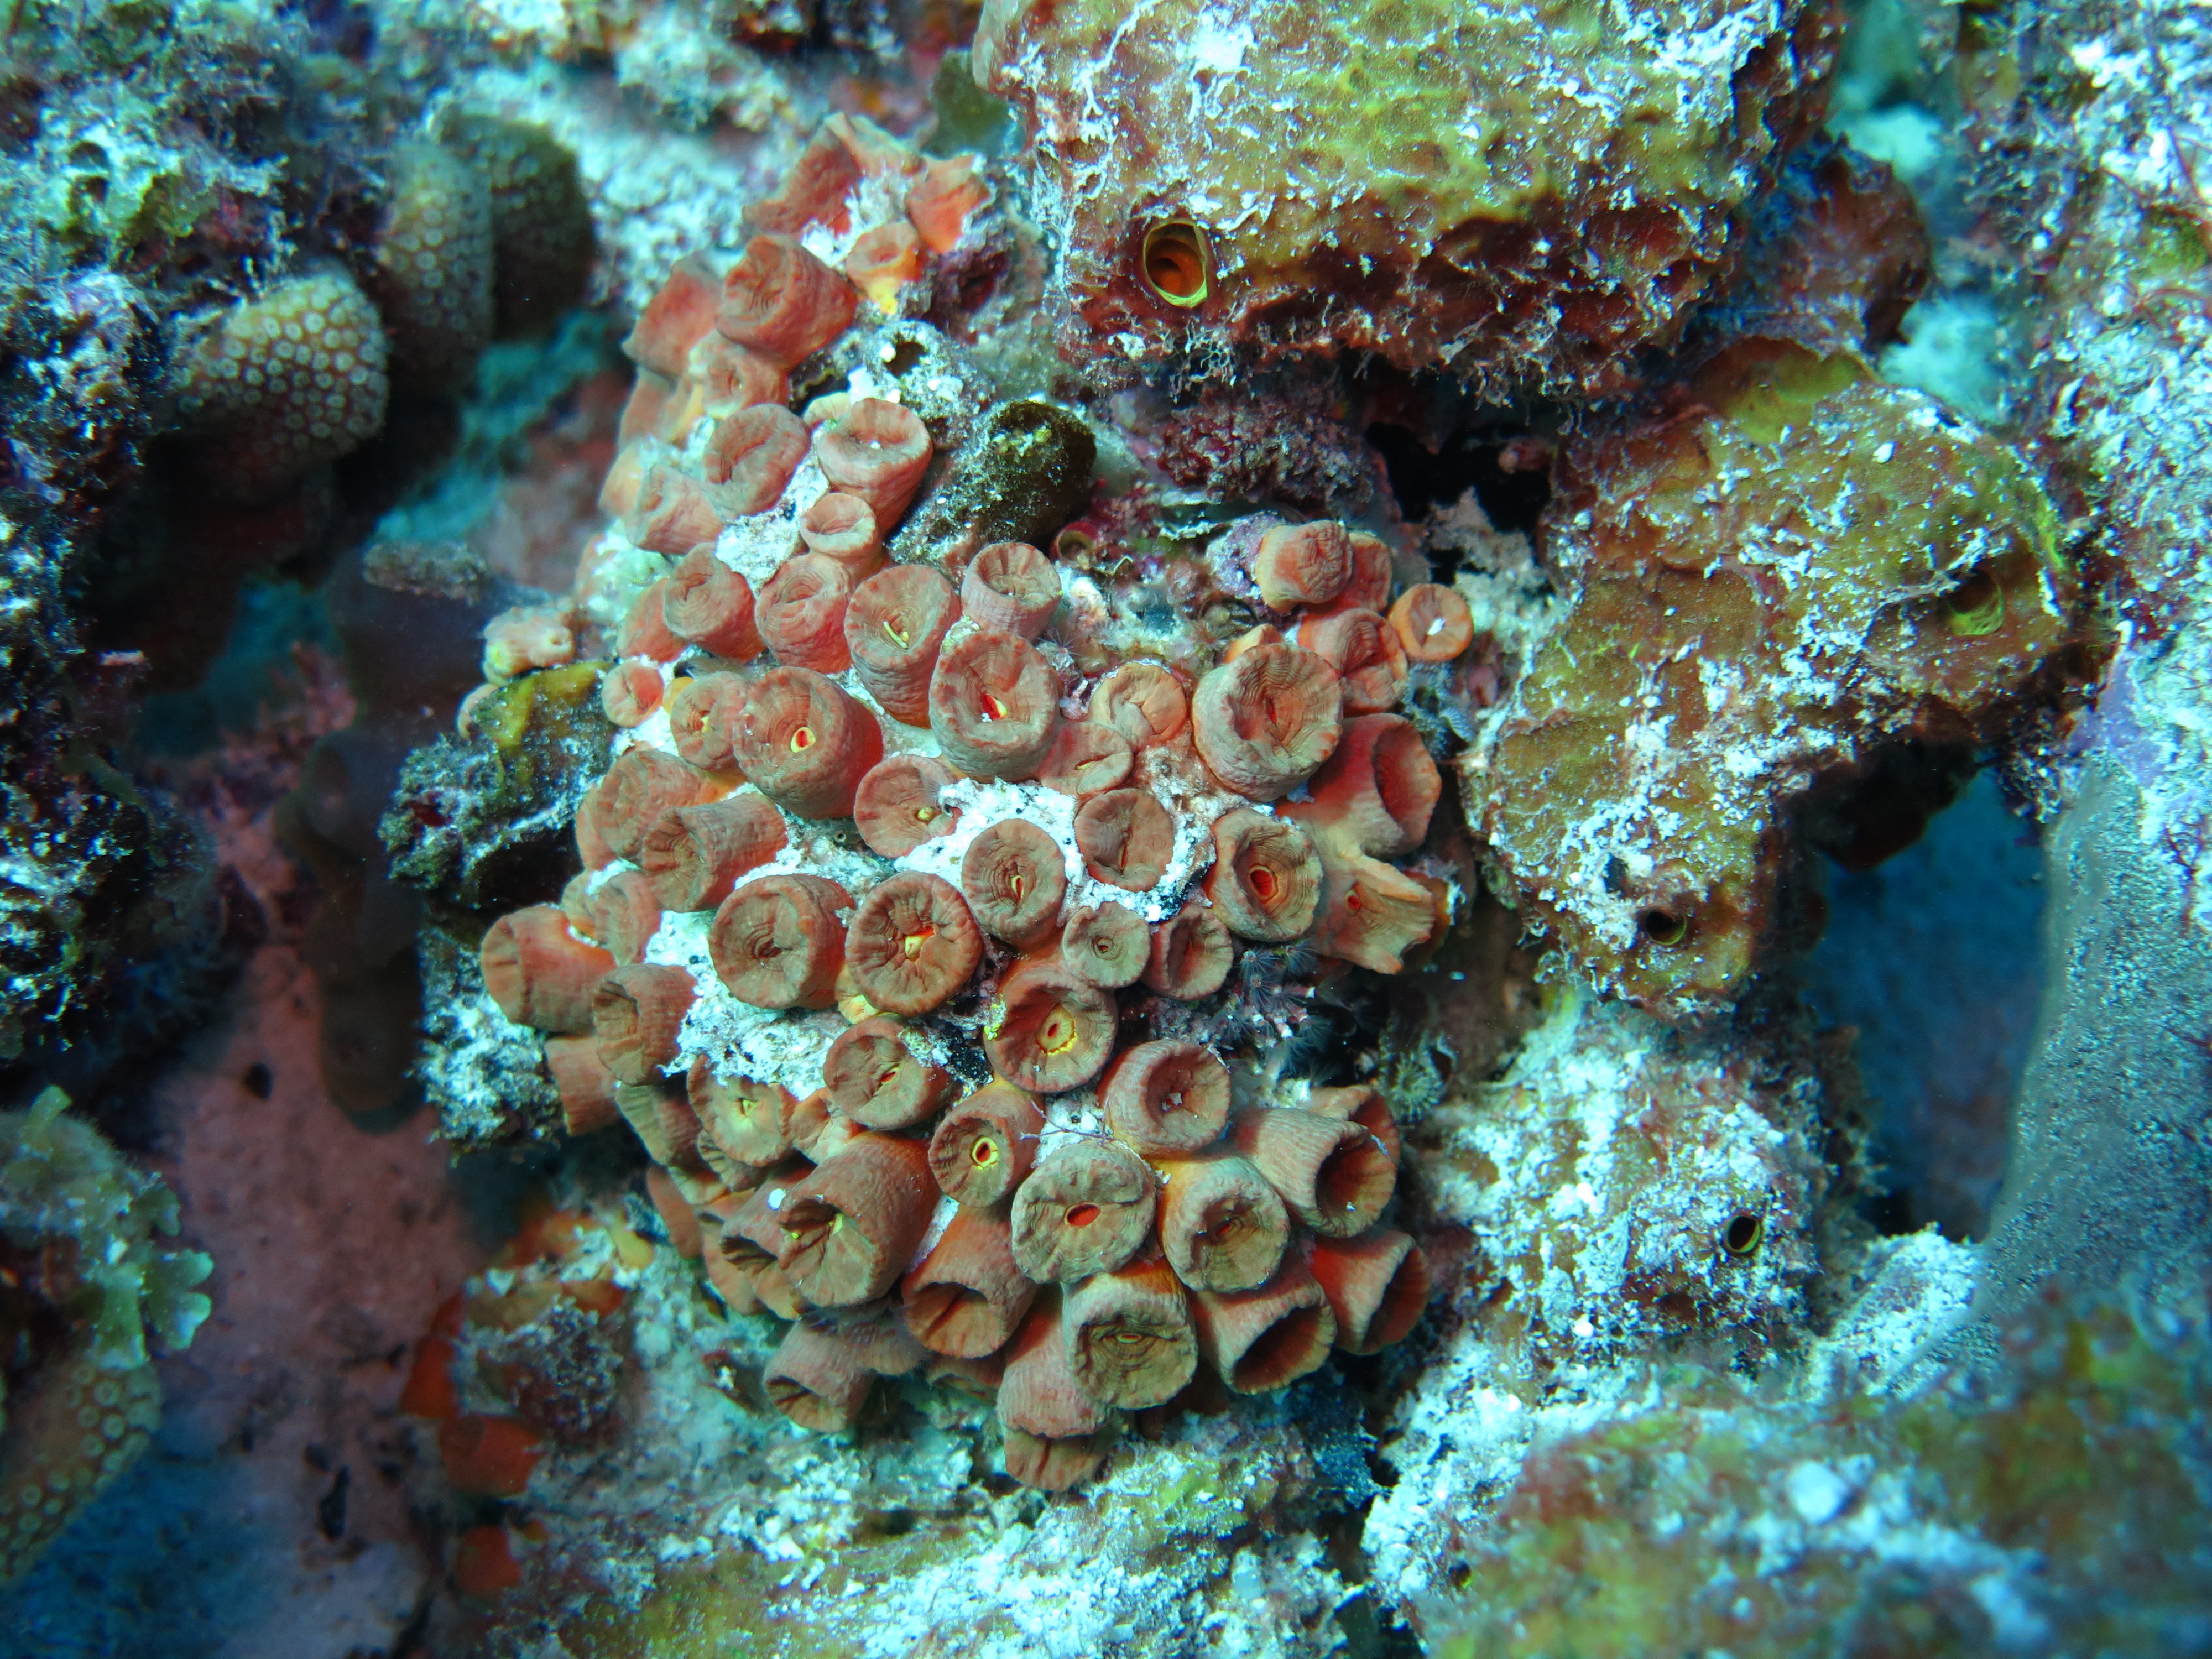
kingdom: Animalia
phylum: Cnidaria
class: Anthozoa
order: Scleractinia
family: Dendrophylliidae
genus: Tubastraea
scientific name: Tubastraea coccinea
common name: Orange cup coral
